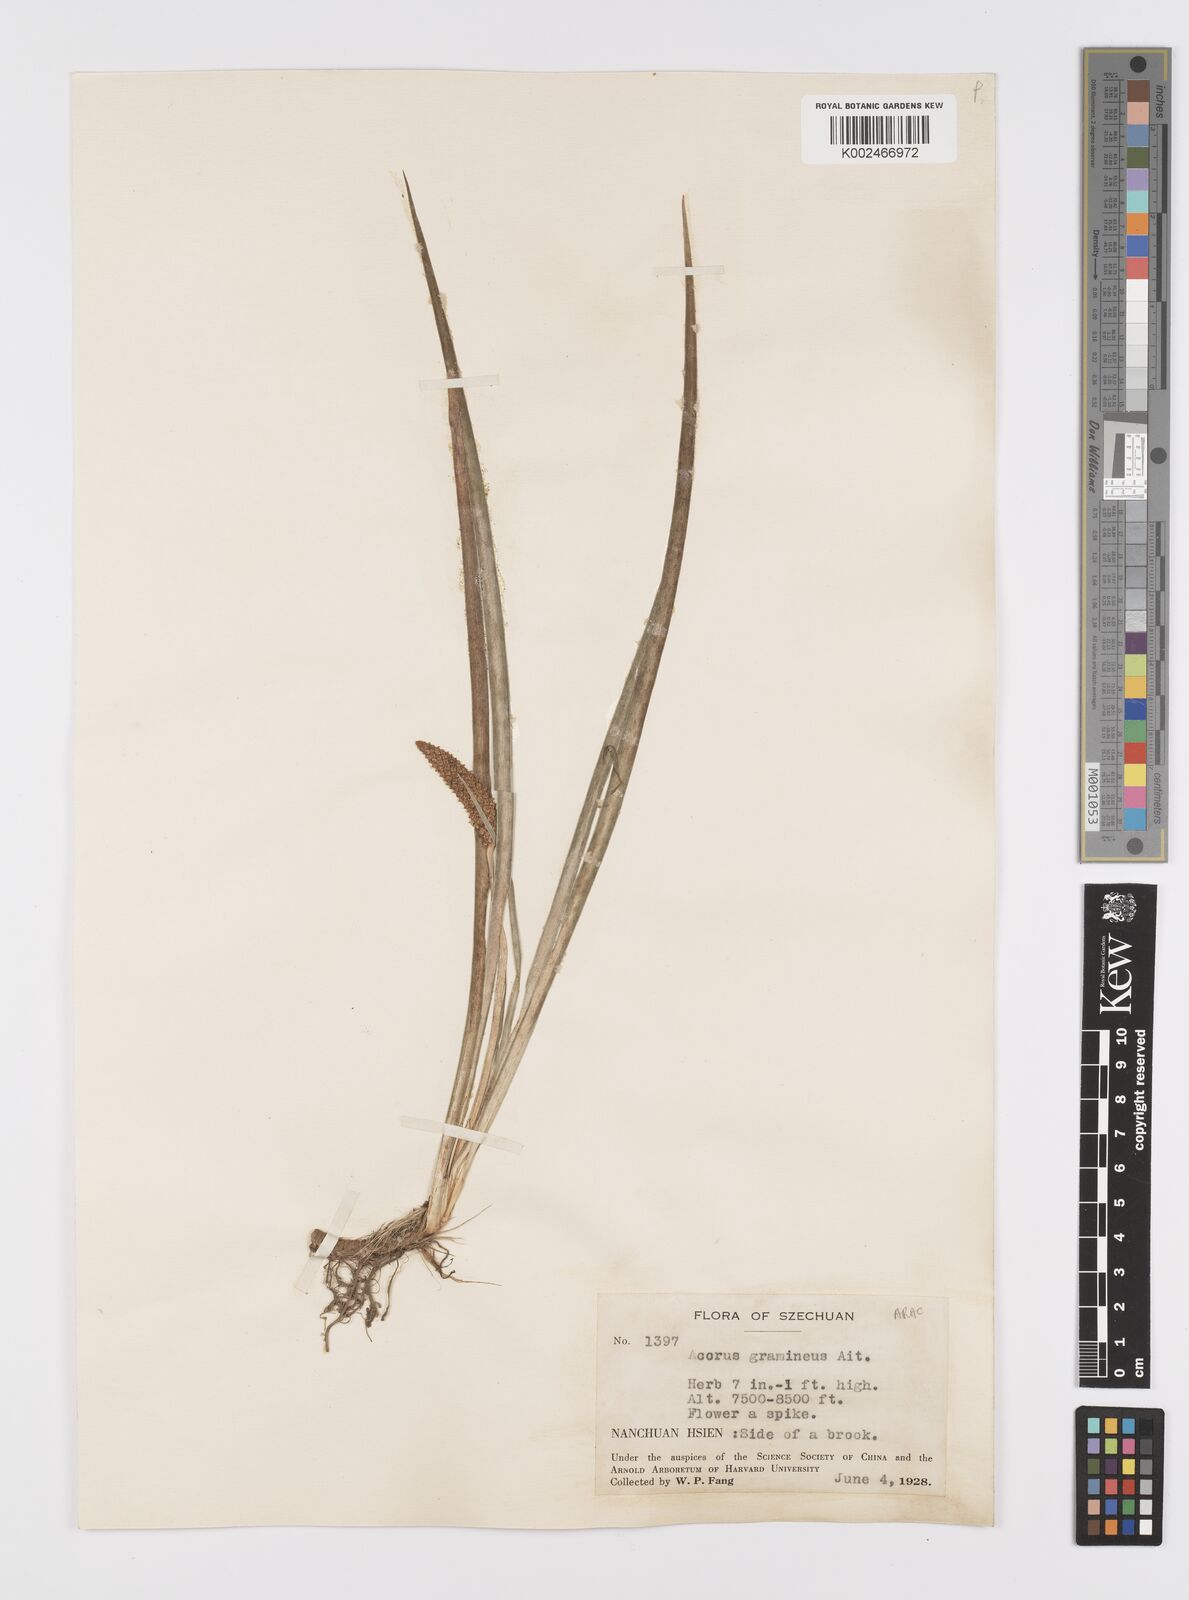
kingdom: Plantae
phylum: Tracheophyta
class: Liliopsida
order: Acorales
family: Acoraceae
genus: Acorus
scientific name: Acorus gramineus
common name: Slender sweet-flag
